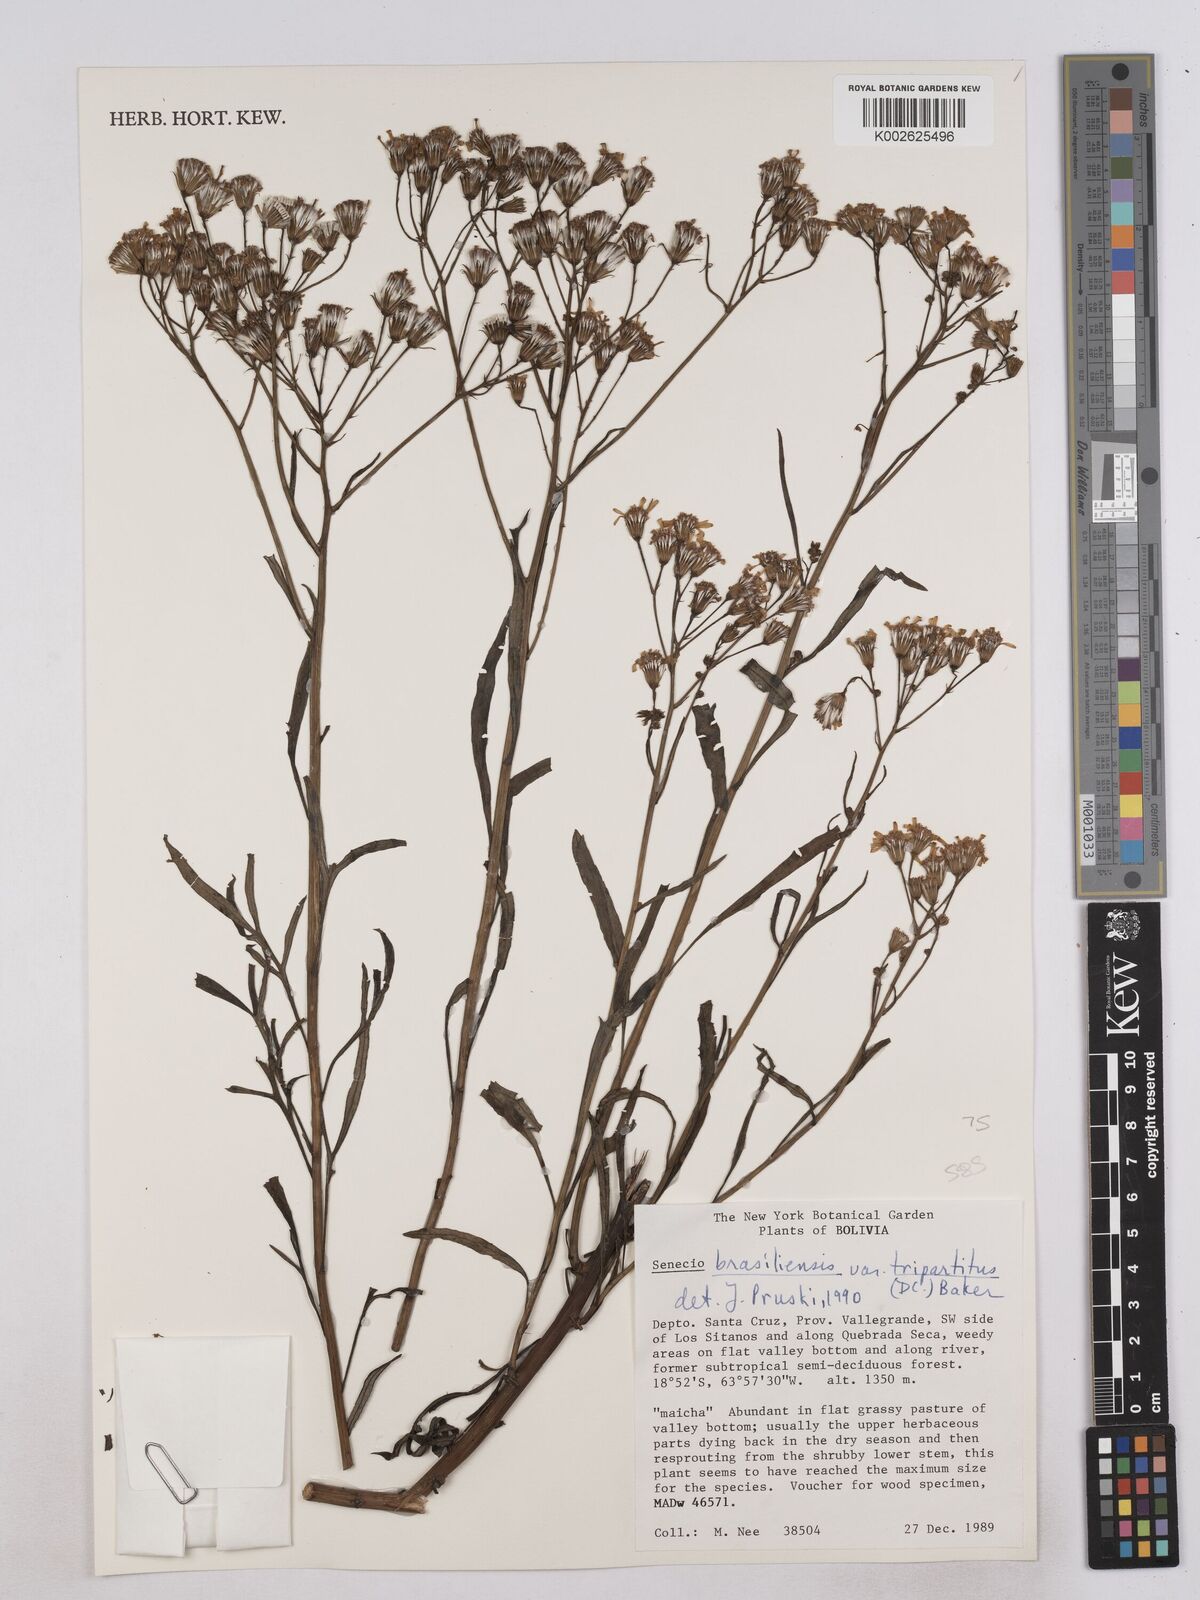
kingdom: Plantae
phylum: Tracheophyta
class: Magnoliopsida
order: Asterales
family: Asteraceae
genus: Senecio
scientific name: Senecio brasiliensis
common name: Hemp-leaf ragwort
